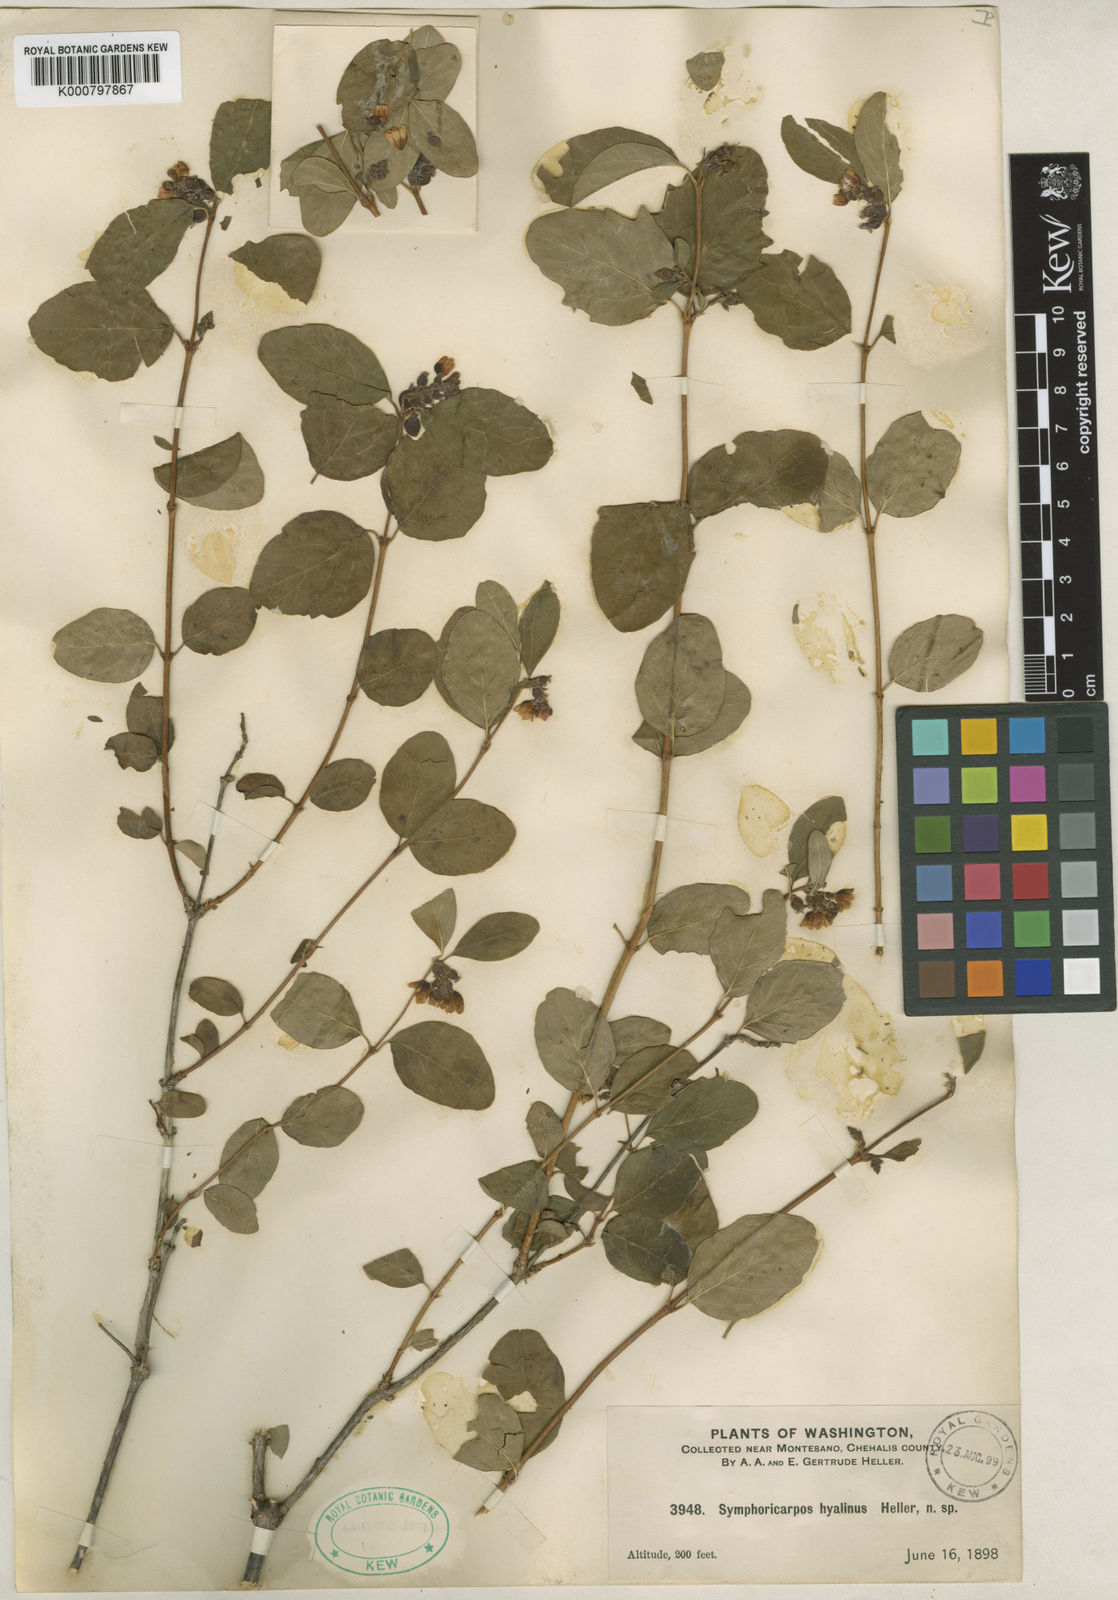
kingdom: Plantae
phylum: Tracheophyta
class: Magnoliopsida
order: Dipsacales
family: Caprifoliaceae
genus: Symphoricarpos
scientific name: Symphoricarpos
